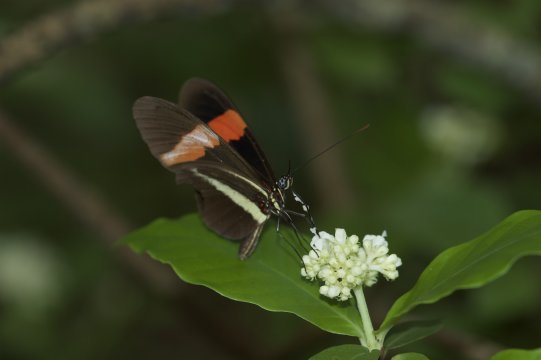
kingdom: Animalia
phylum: Arthropoda
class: Insecta
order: Lepidoptera
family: Nymphalidae
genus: Heliconius
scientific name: Heliconius erato
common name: Erato Heliconian
